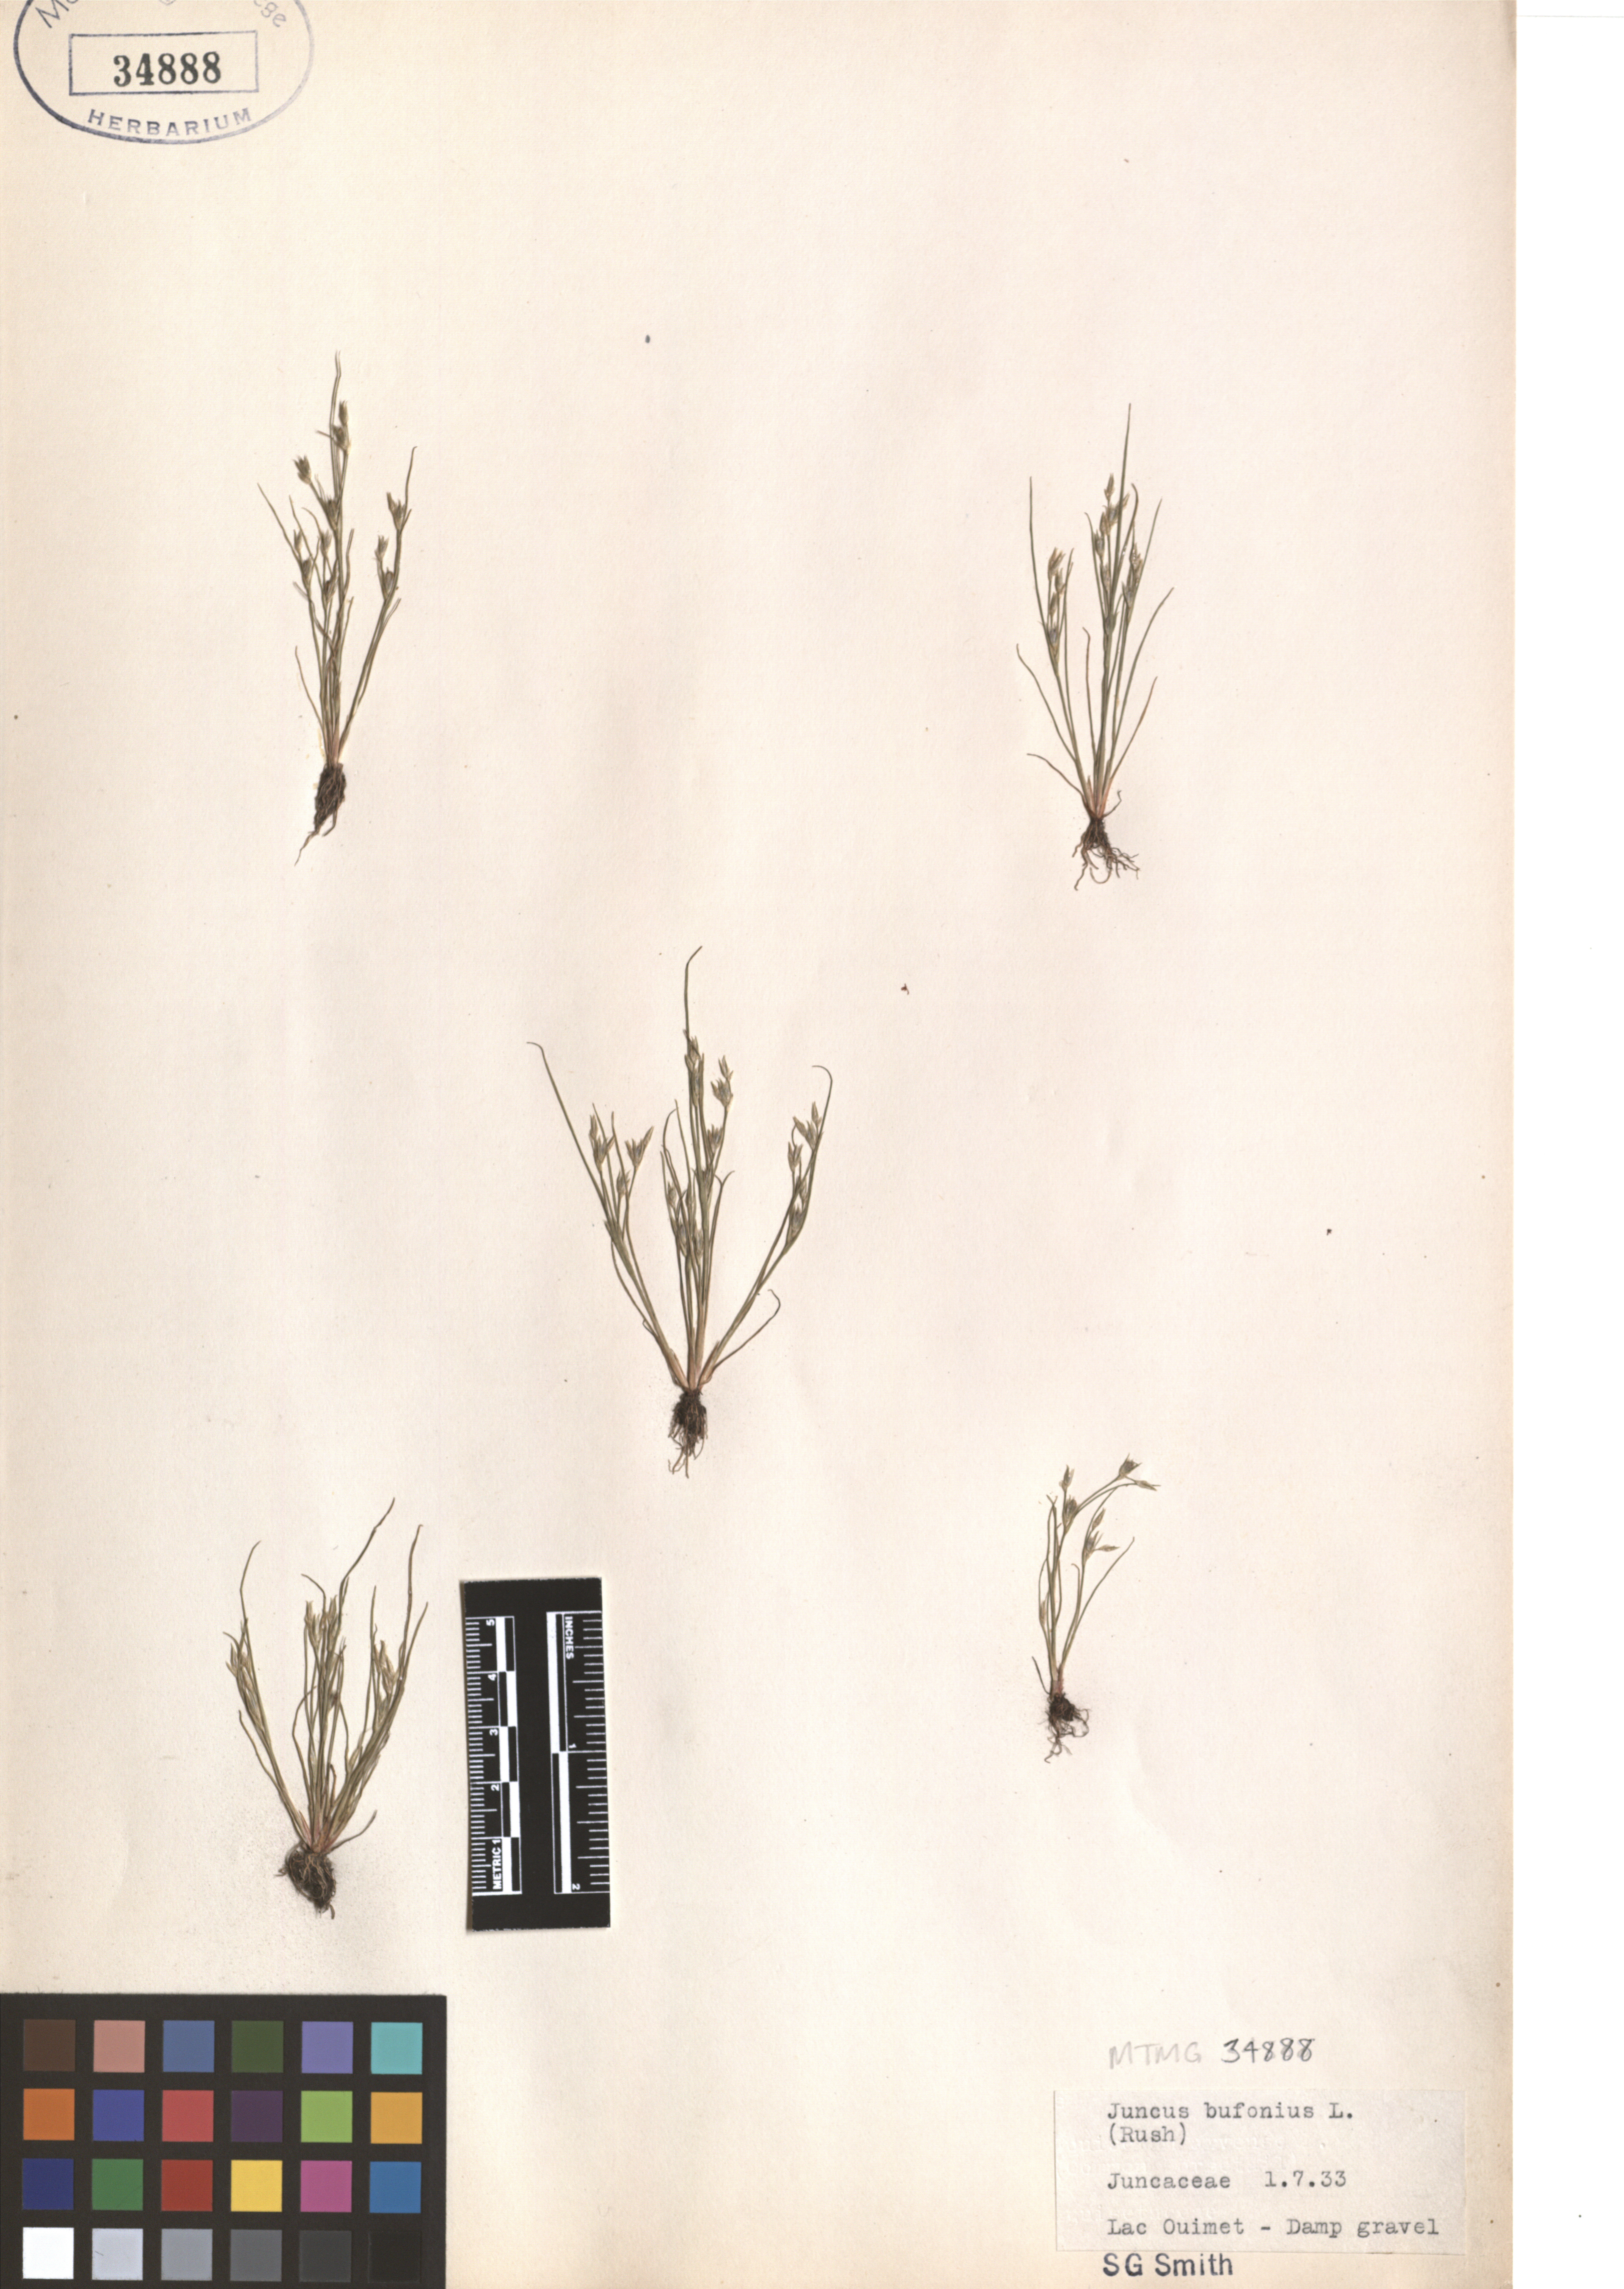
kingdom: Plantae
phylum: Tracheophyta
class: Liliopsida
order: Poales
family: Juncaceae
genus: Juncus
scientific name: Juncus bufonius
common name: Toad rush
